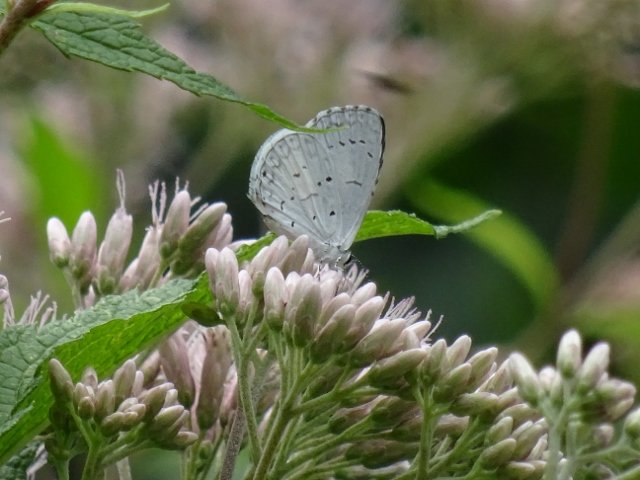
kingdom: Animalia
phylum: Arthropoda
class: Insecta
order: Lepidoptera
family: Lycaenidae
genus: Celastrina
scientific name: Celastrina
